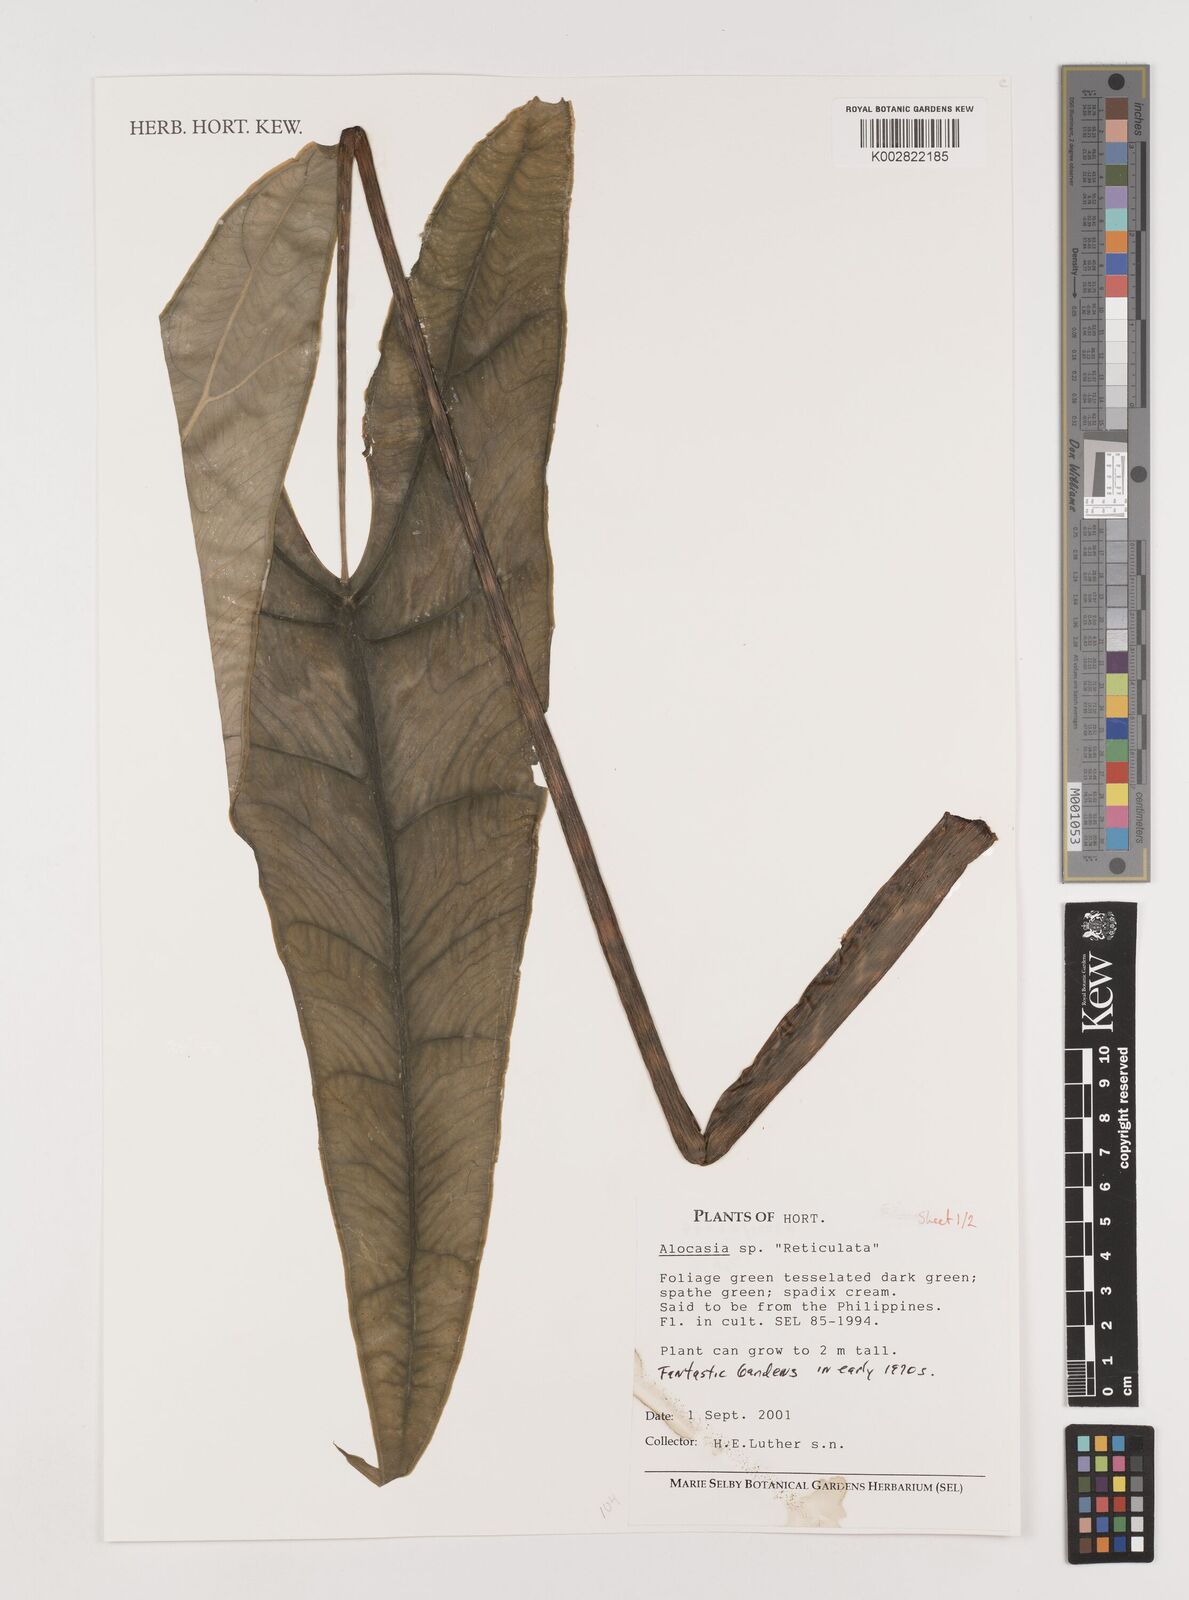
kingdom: Plantae
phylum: Tracheophyta
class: Liliopsida
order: Alismatales
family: Araceae
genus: Alocasia
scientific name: Alocasia
